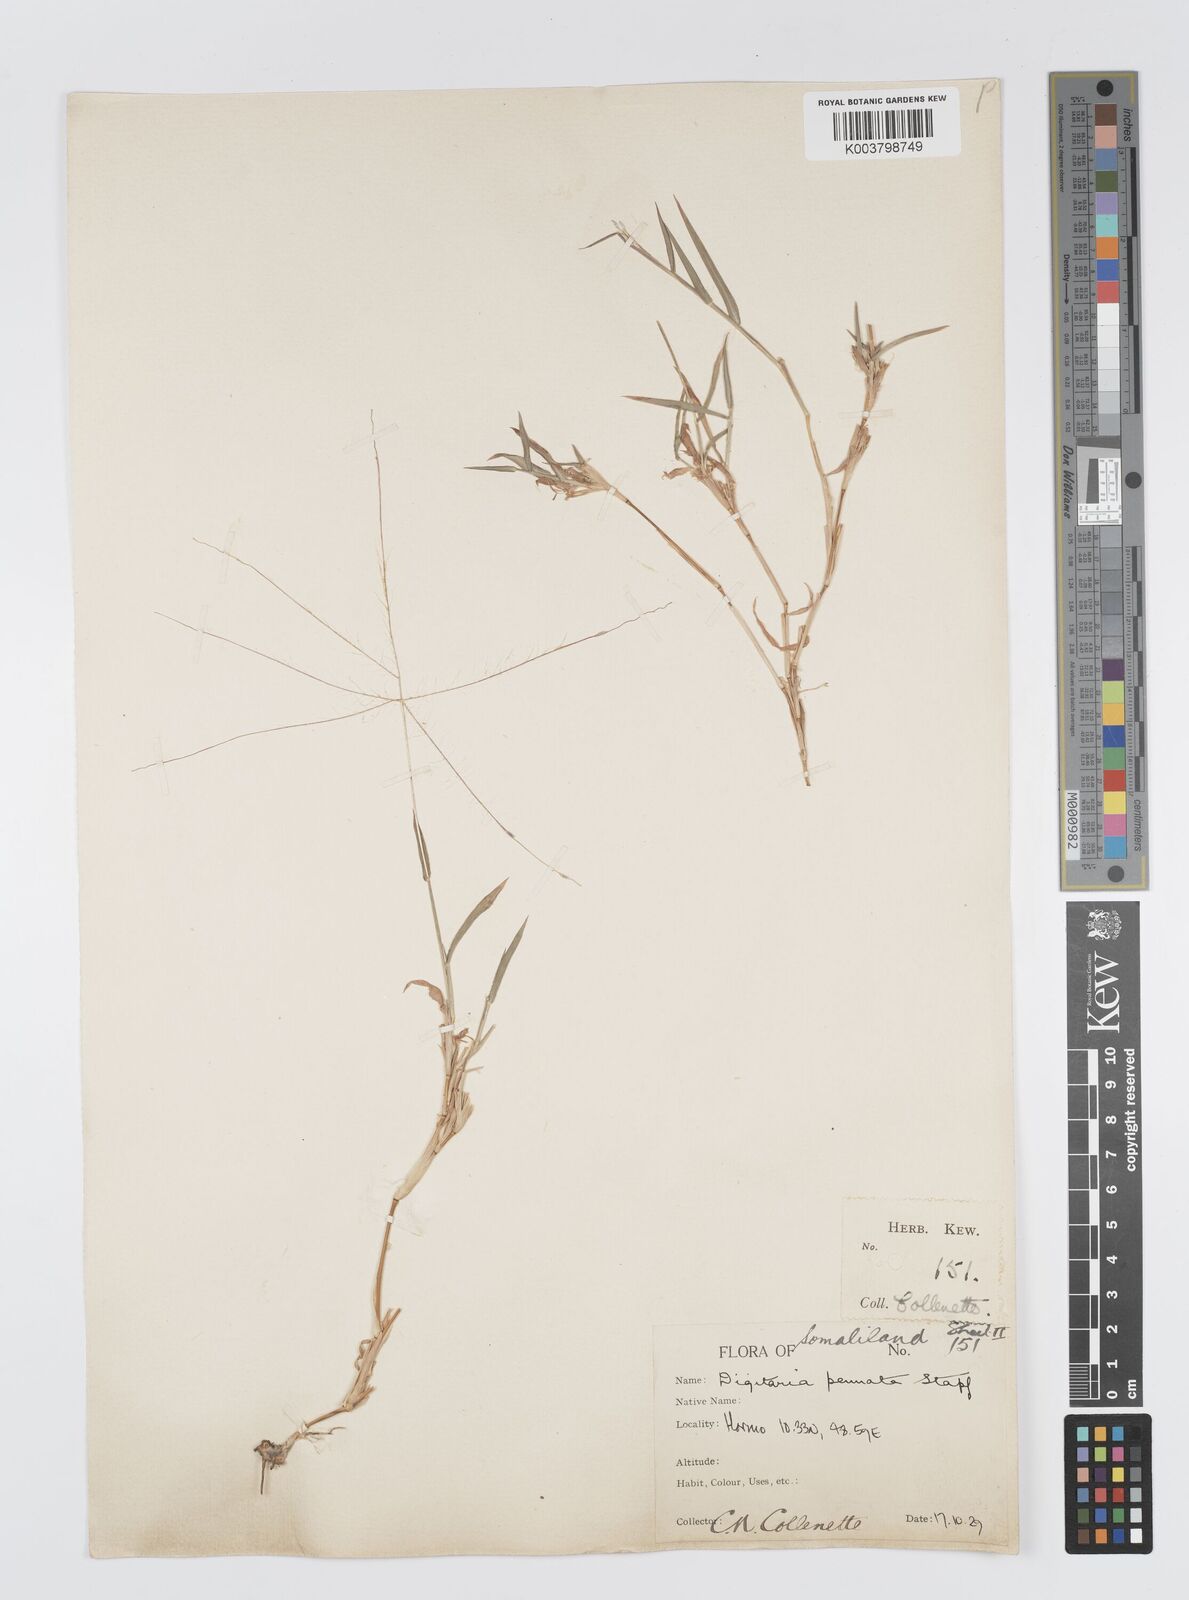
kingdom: Plantae
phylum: Tracheophyta
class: Liliopsida
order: Poales
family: Poaceae
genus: Digitaria
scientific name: Digitaria pennata
